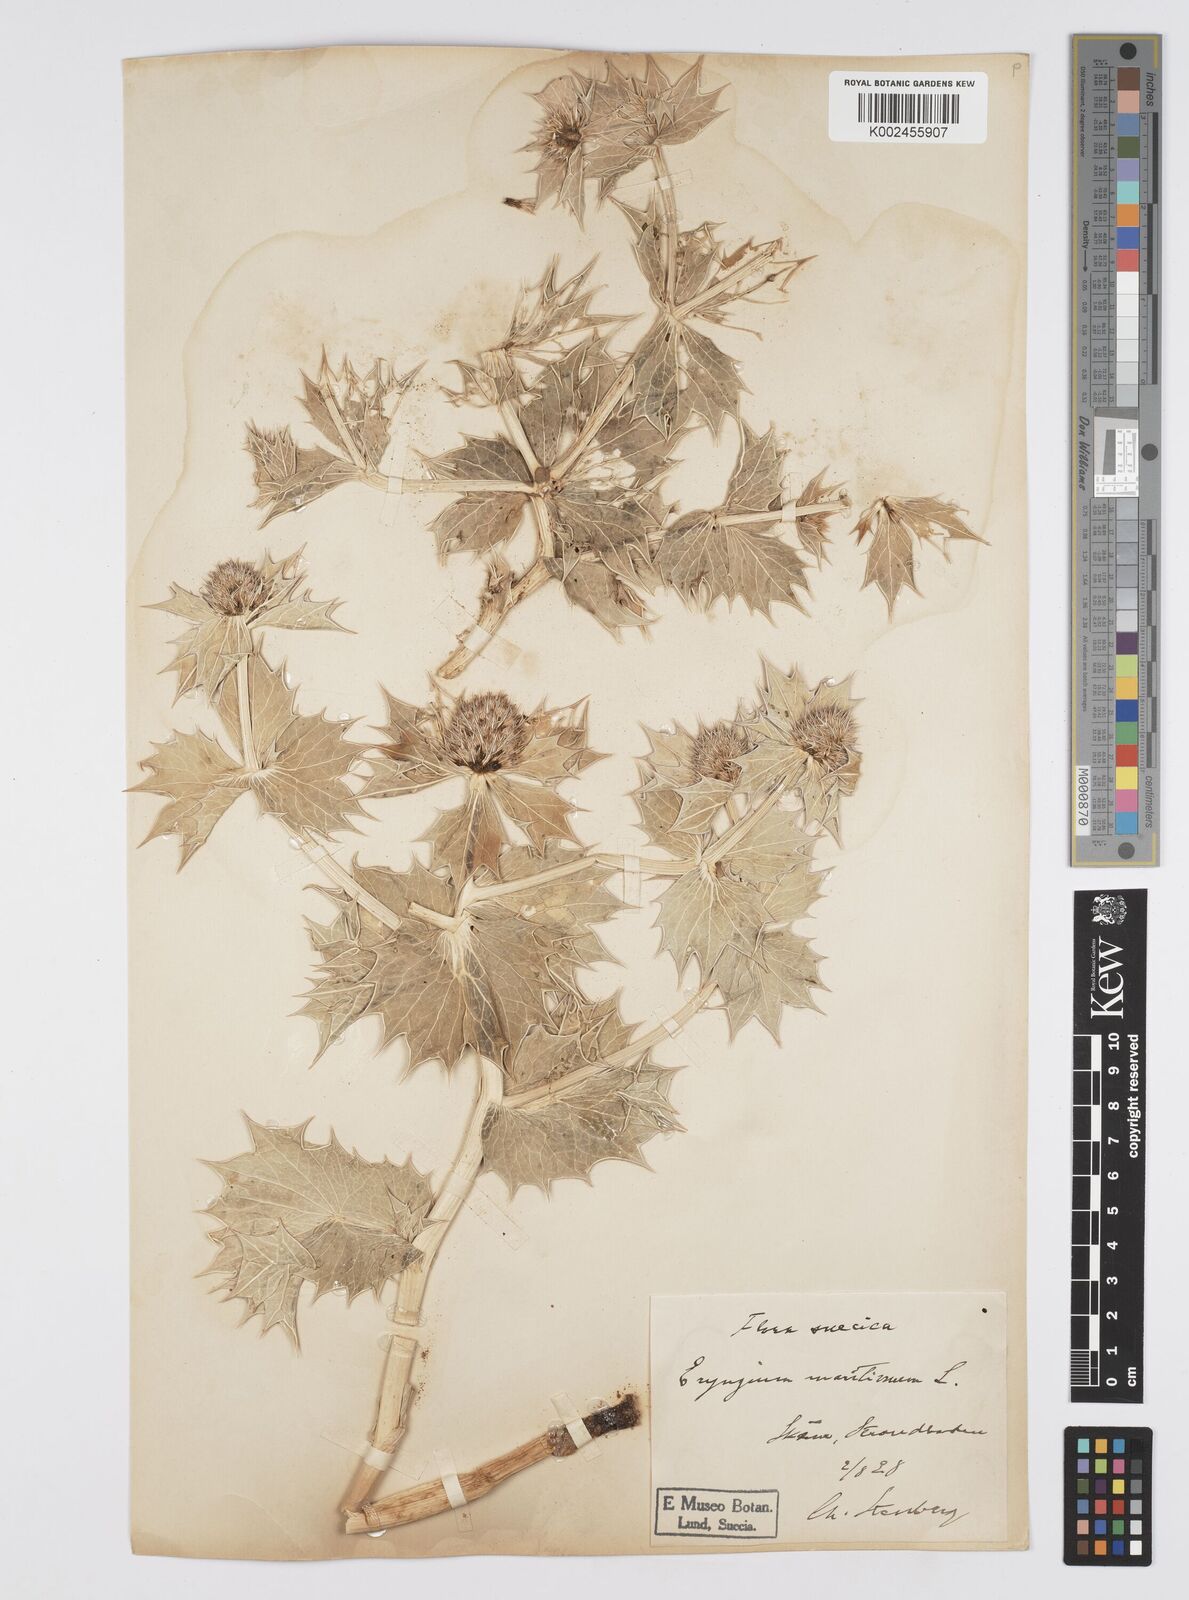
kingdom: Plantae
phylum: Tracheophyta
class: Magnoliopsida
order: Apiales
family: Apiaceae
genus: Eryngium
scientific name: Eryngium maritimum
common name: Sea-holly
